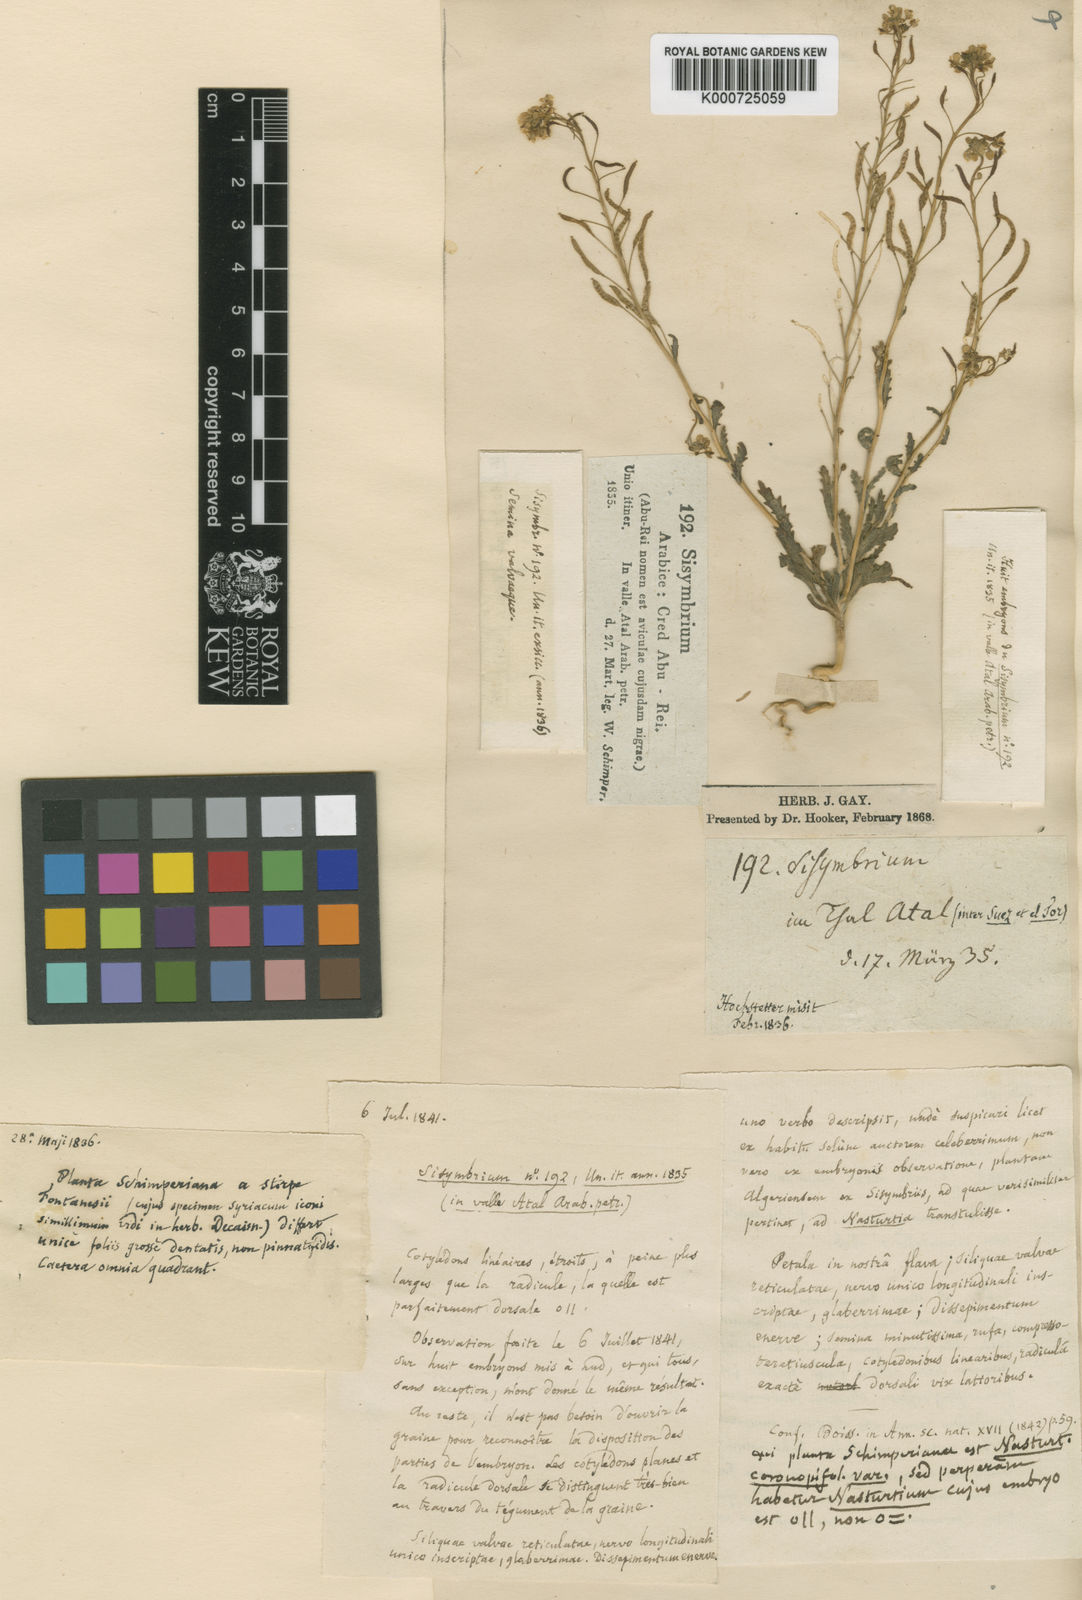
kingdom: Plantae
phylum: Tracheophyta
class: Magnoliopsida
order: Brassicales
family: Brassicaceae
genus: Nasturtiopsis
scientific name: Nasturtiopsis coronopifolia
